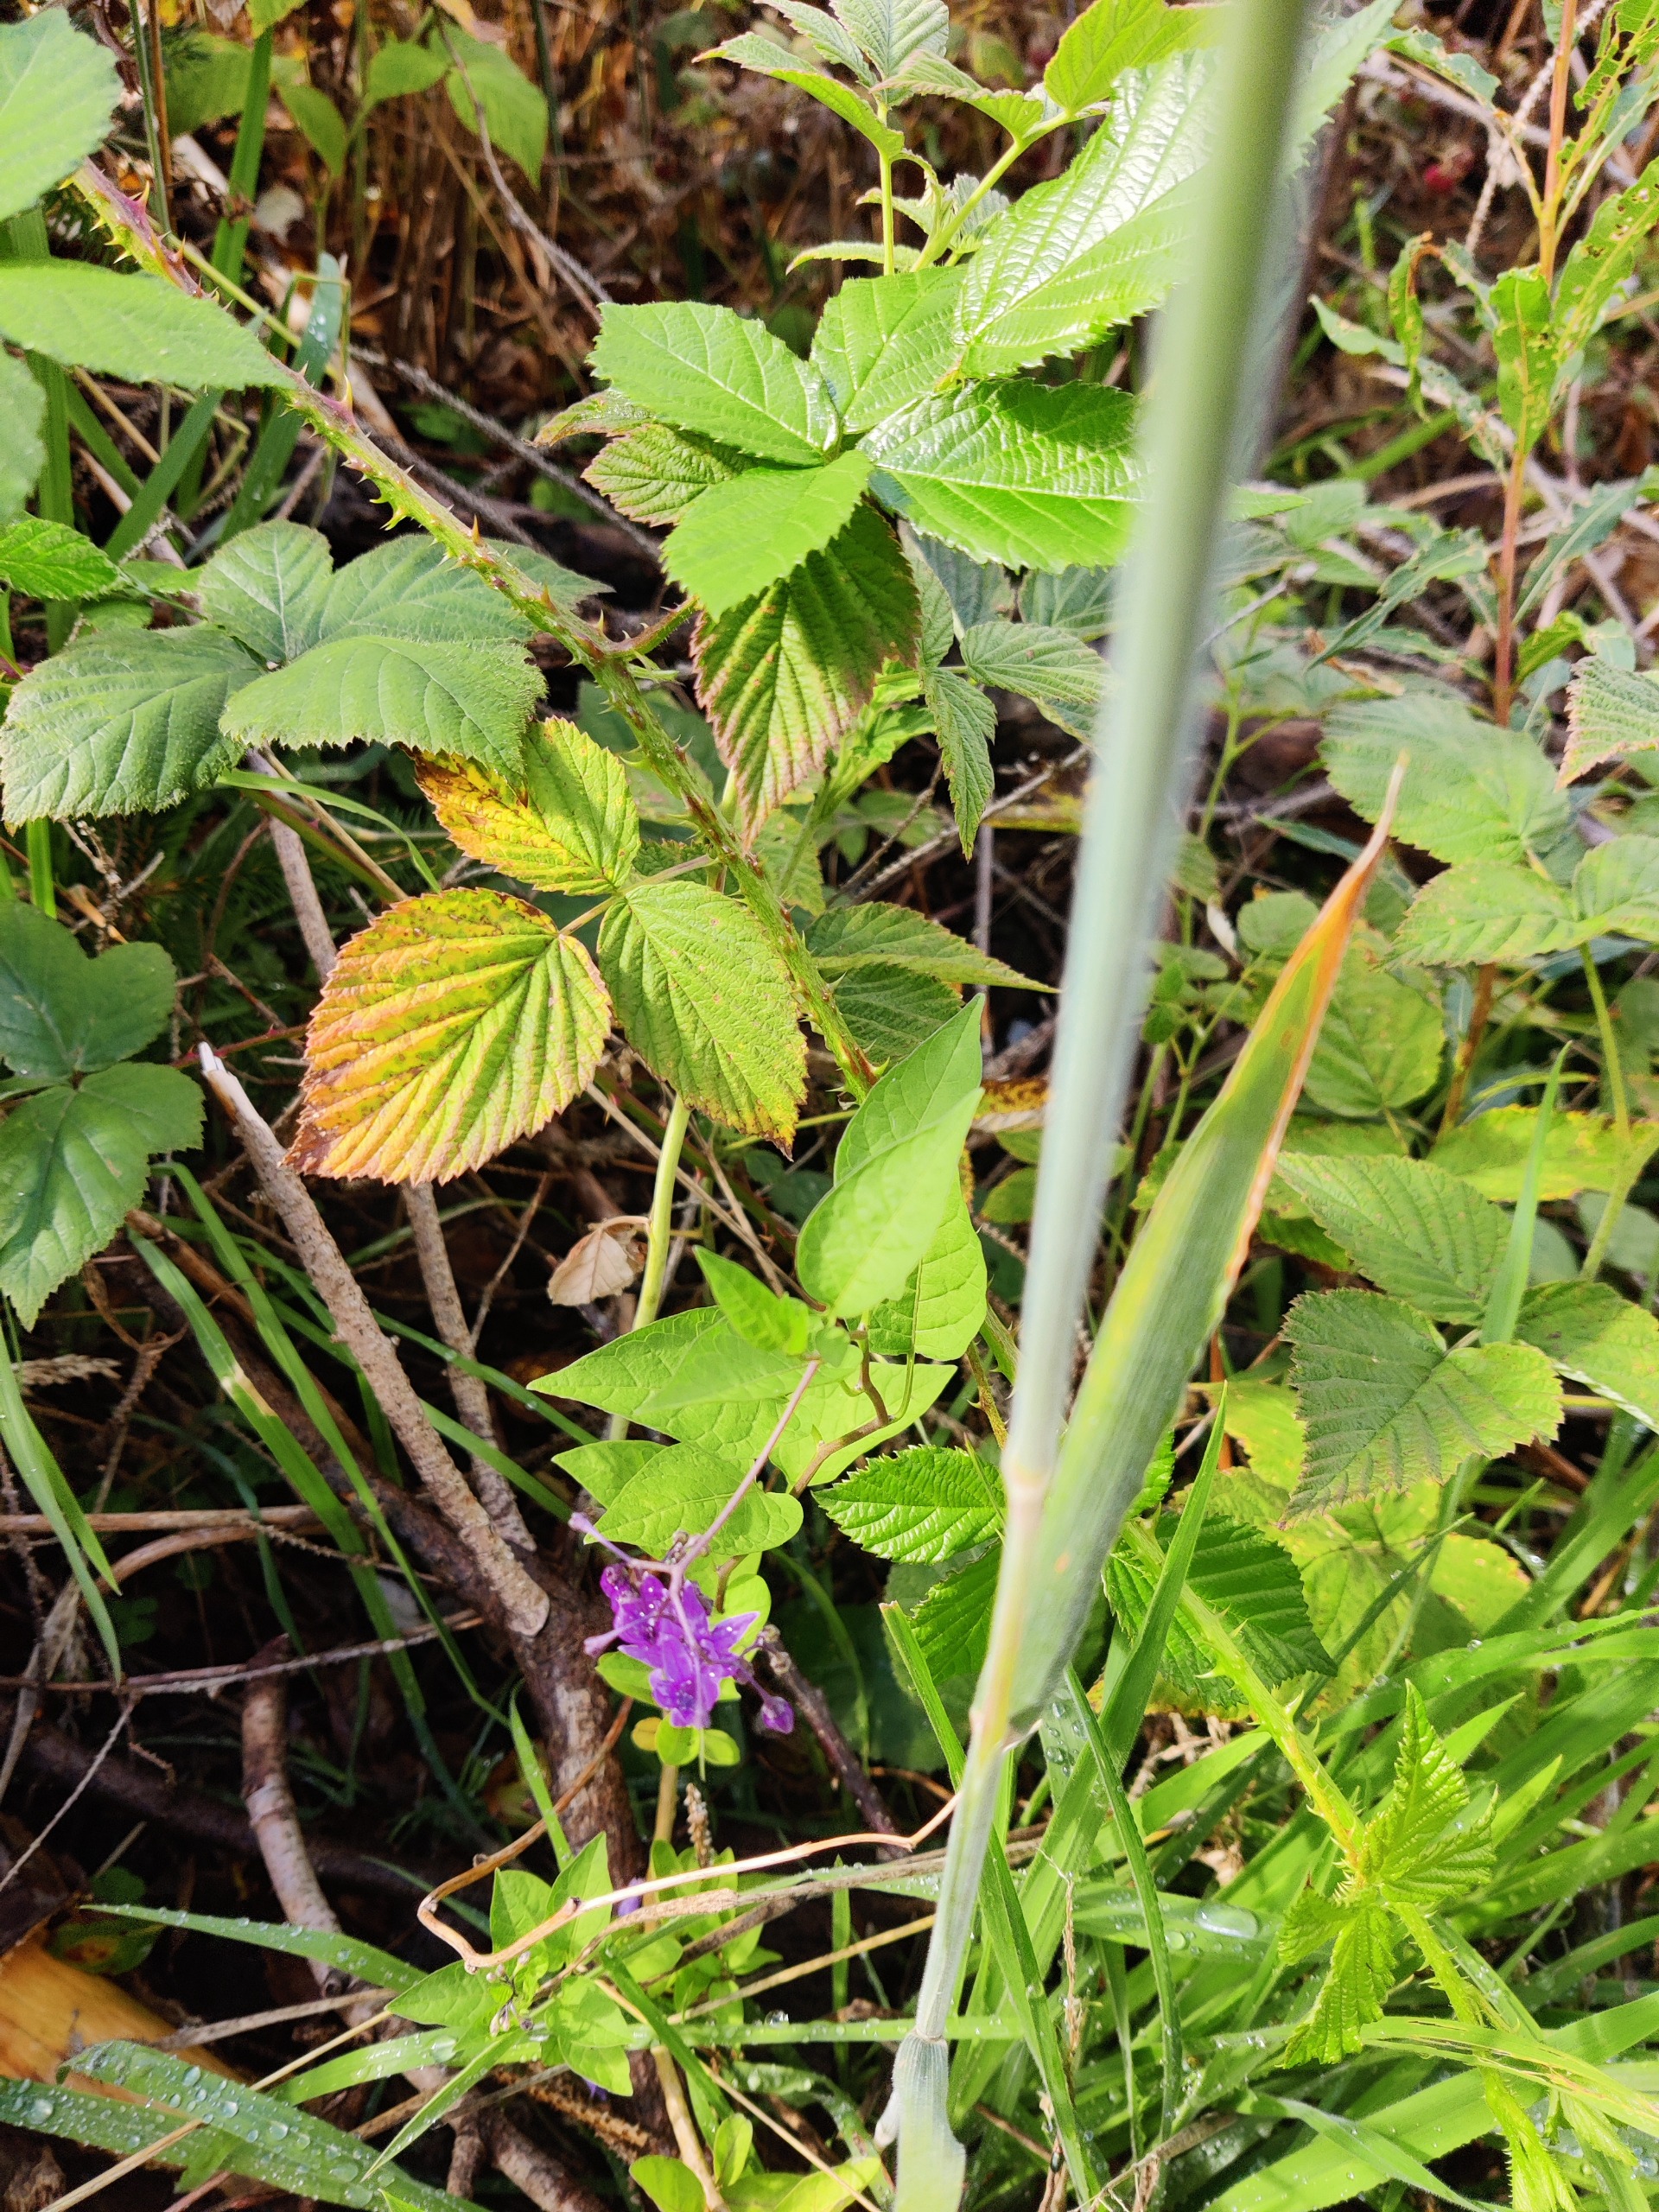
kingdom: Plantae
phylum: Tracheophyta
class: Magnoliopsida
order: Solanales
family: Solanaceae
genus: Solanum
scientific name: Solanum dulcamara
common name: Bittersød natskygge
